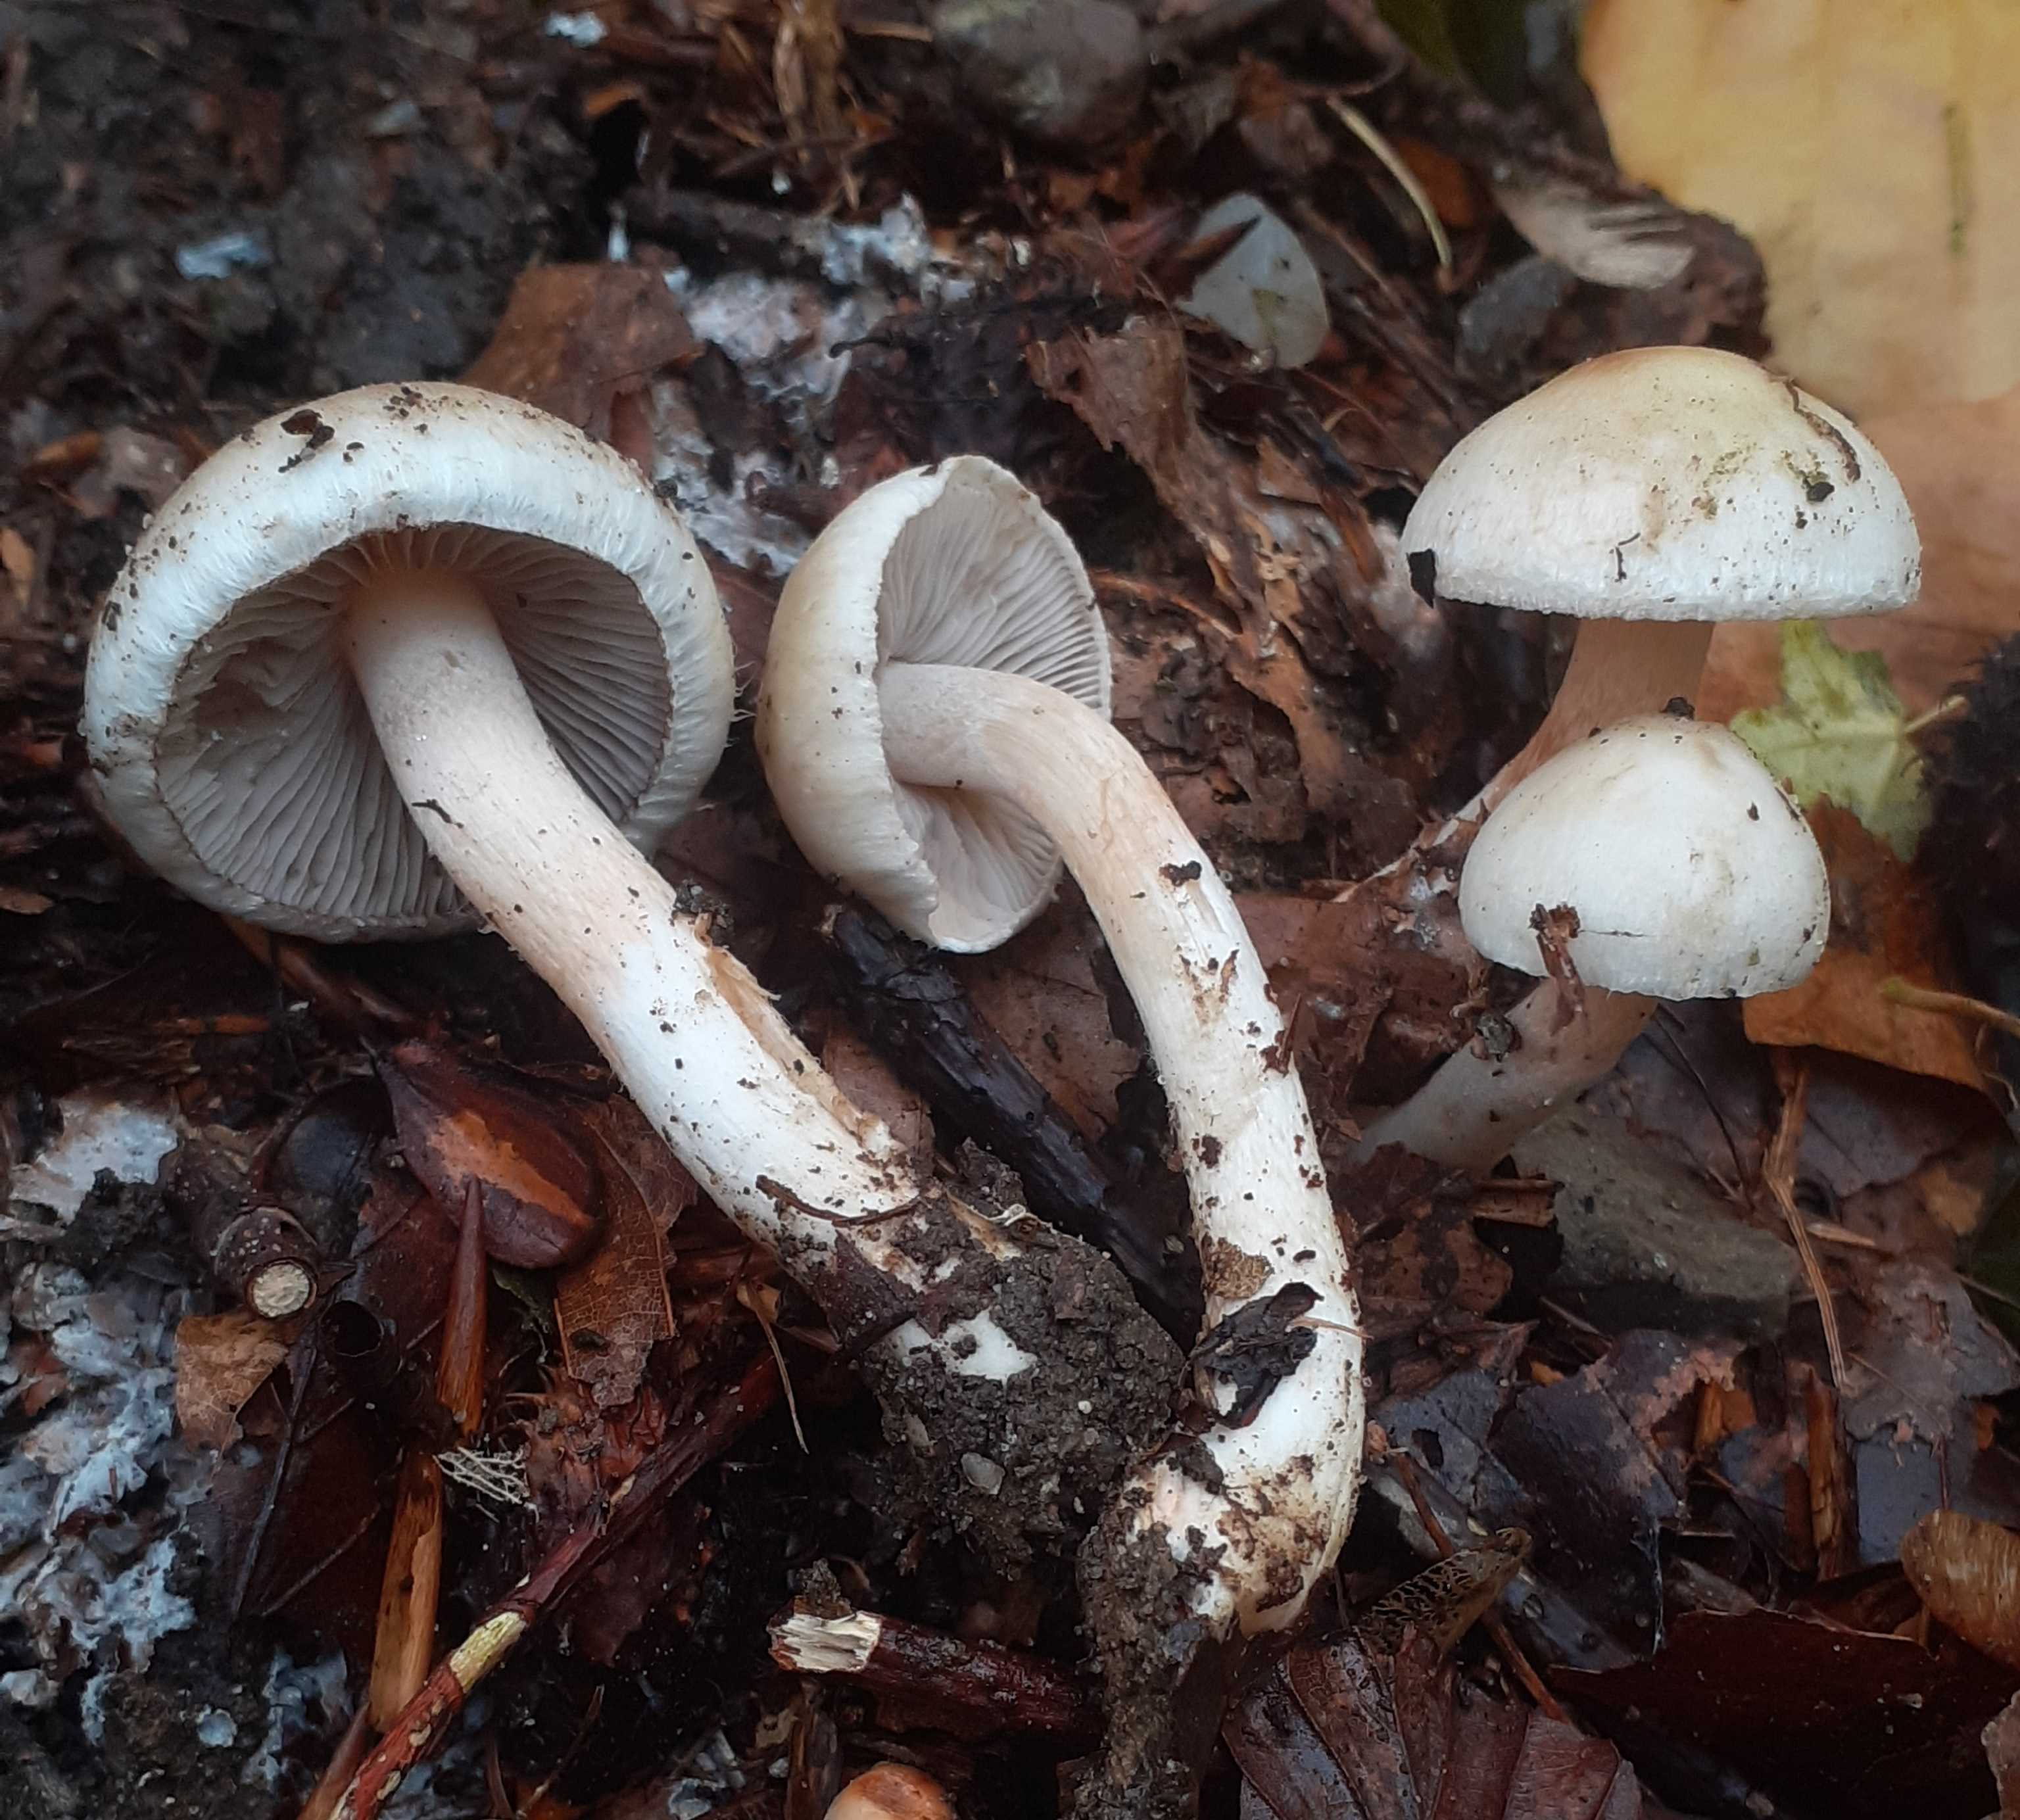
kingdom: Fungi
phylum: Basidiomycota
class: Agaricomycetes
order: Agaricales
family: Inocybaceae
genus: Inocybe
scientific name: Inocybe godeyi
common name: orangerødmende trævlhat
